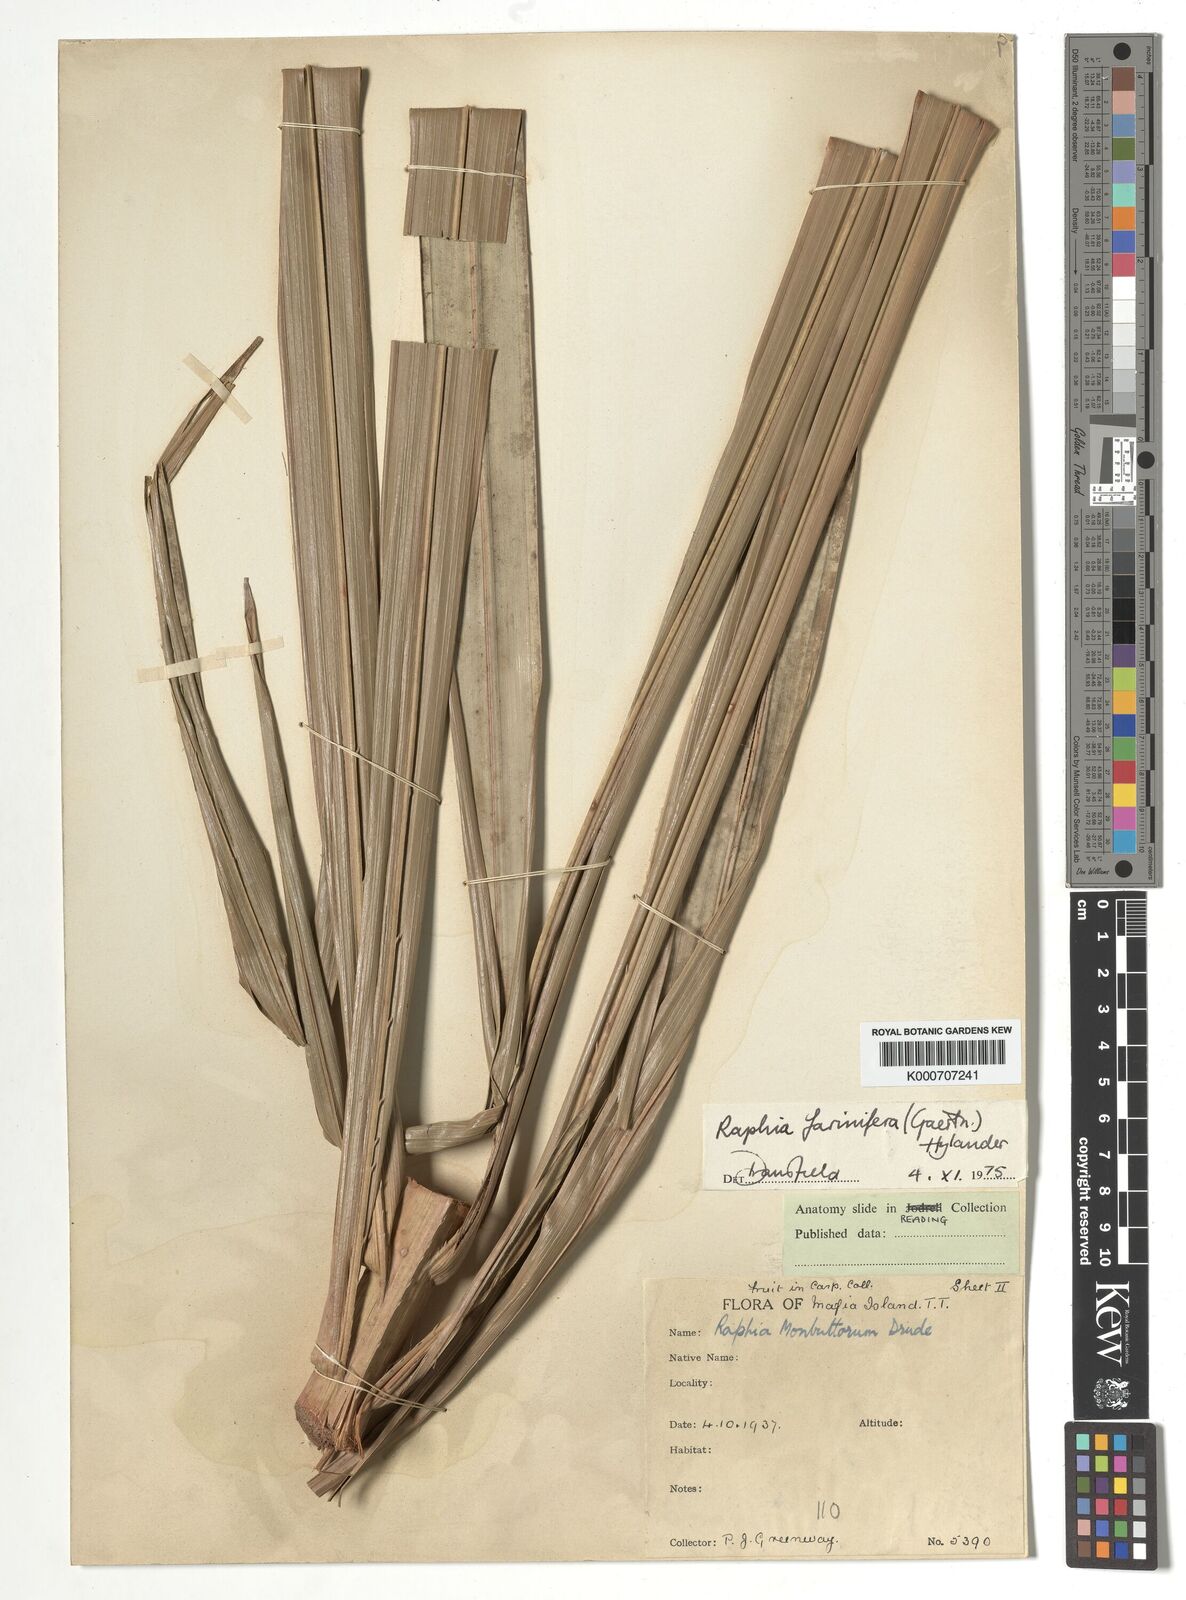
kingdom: Plantae
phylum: Tracheophyta
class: Liliopsida
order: Arecales
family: Arecaceae
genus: Raphia
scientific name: Raphia farinifera
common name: Raphia palm
